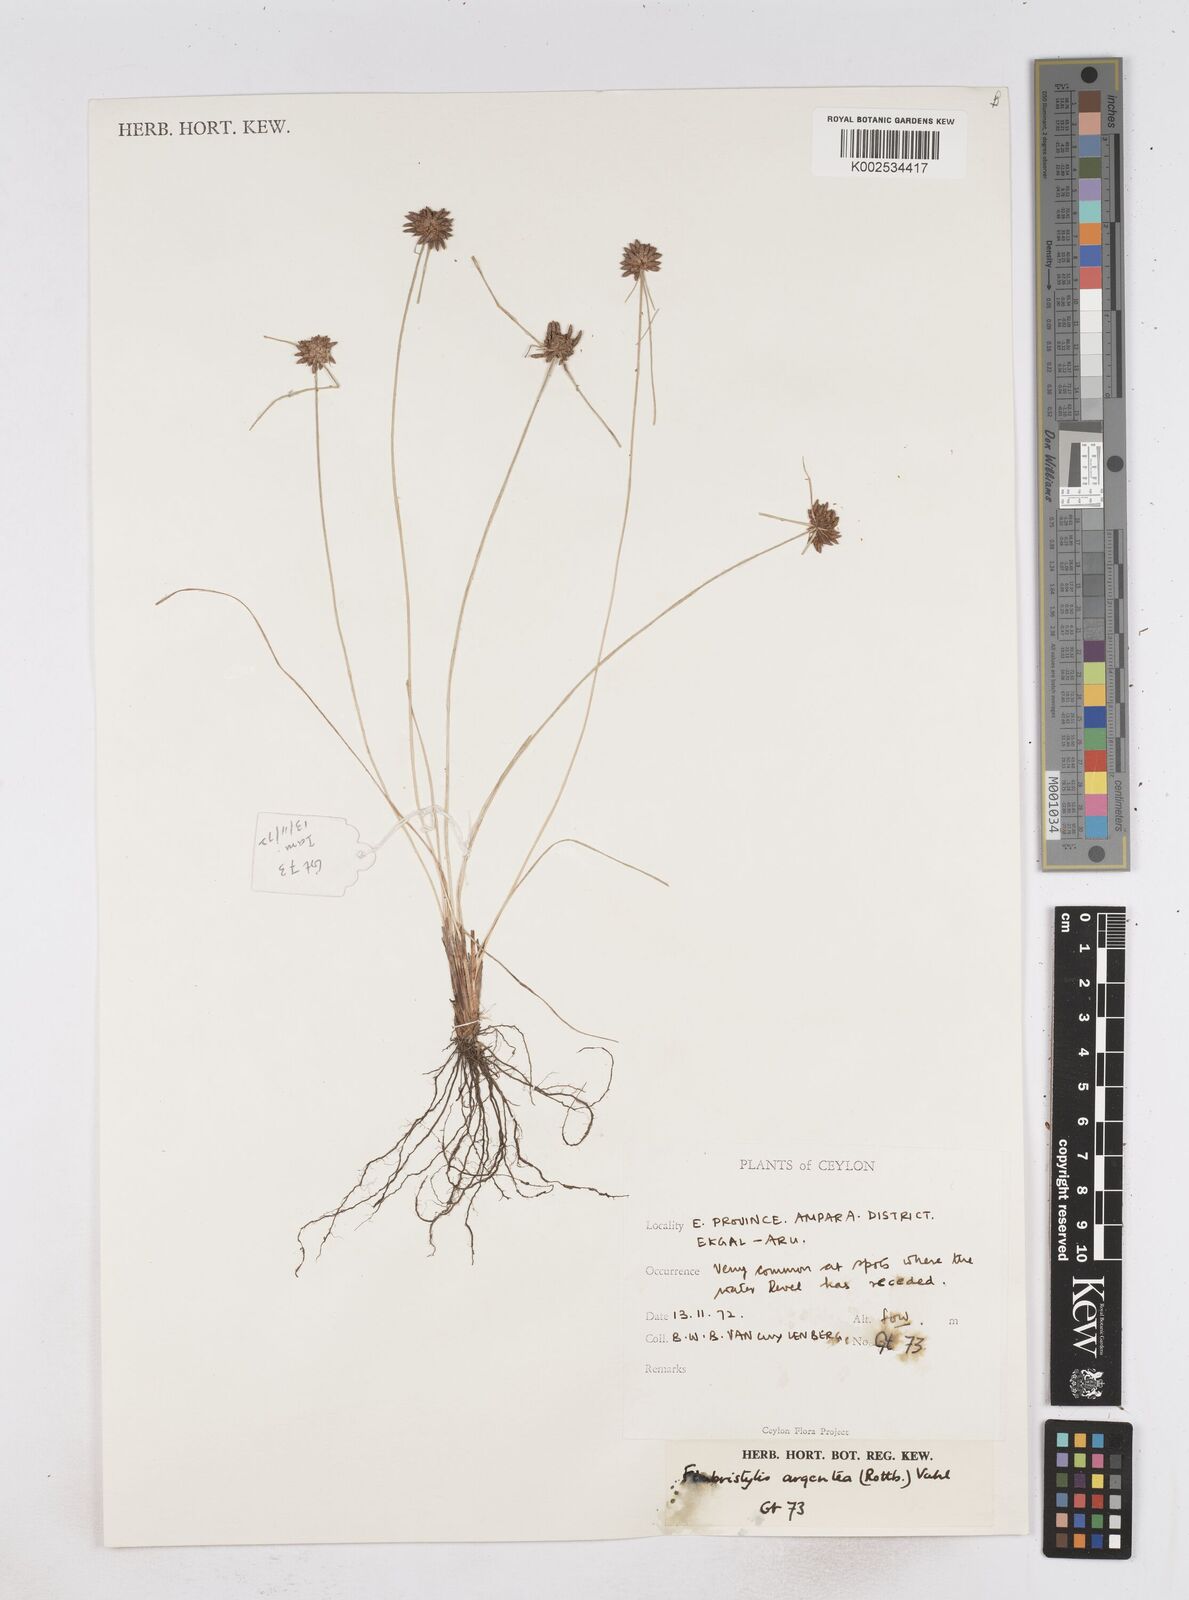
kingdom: Plantae
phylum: Tracheophyta
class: Liliopsida
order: Poales
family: Cyperaceae
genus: Fimbristylis
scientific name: Fimbristylis argentea
